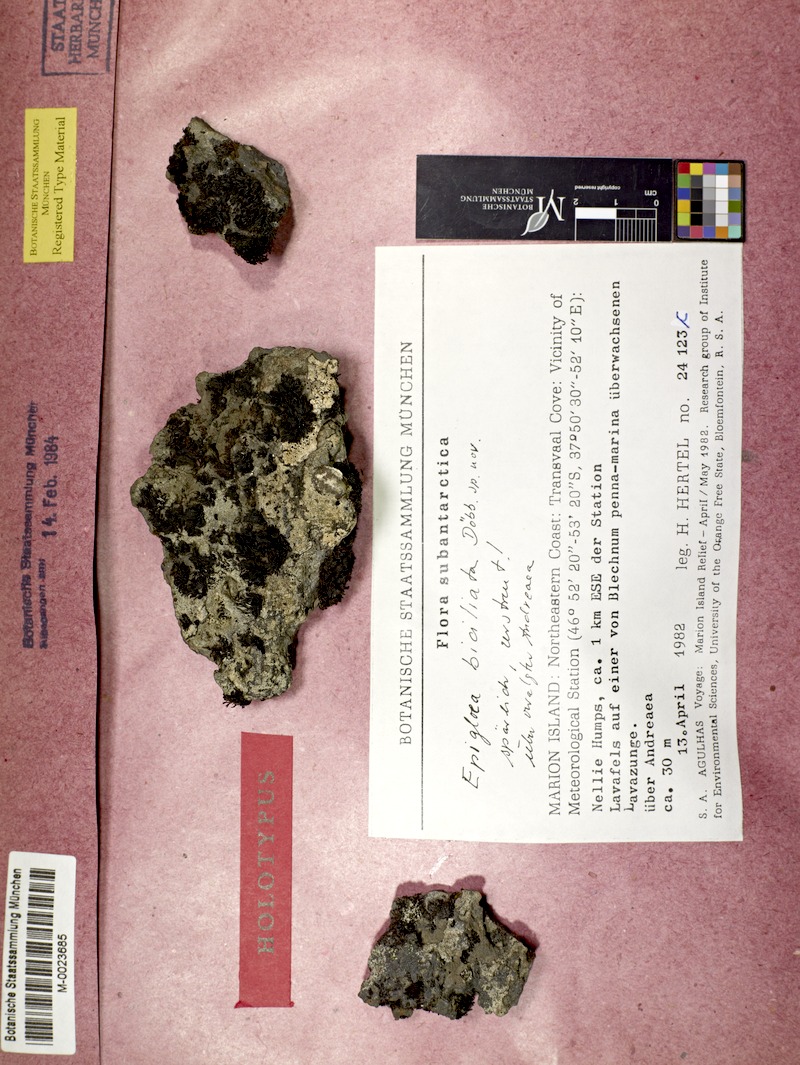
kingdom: Fungi
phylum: Ascomycota
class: Lecanoromycetes
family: Epigloeaceae
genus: Epigloea
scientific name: Epigloea biciliata
